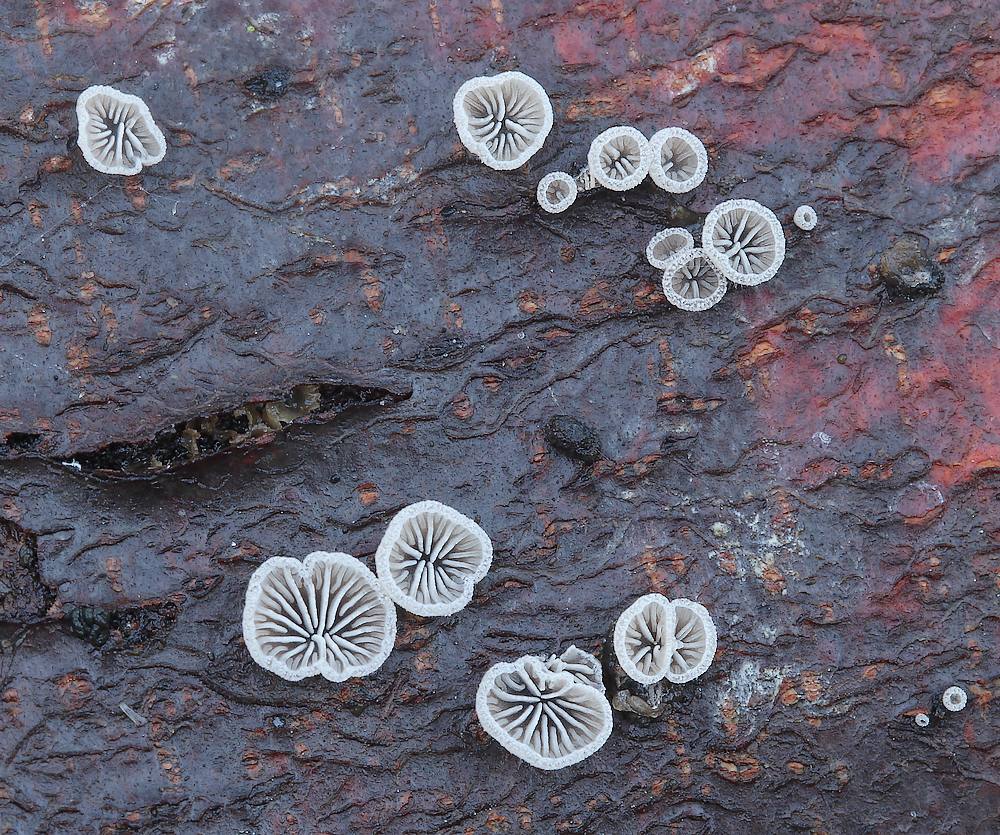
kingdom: Fungi
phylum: Basidiomycota
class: Agaricomycetes
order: Agaricales
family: Pleurotaceae
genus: Resupinatus
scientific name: Resupinatus applicatus
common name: lysfiltet barkhat
